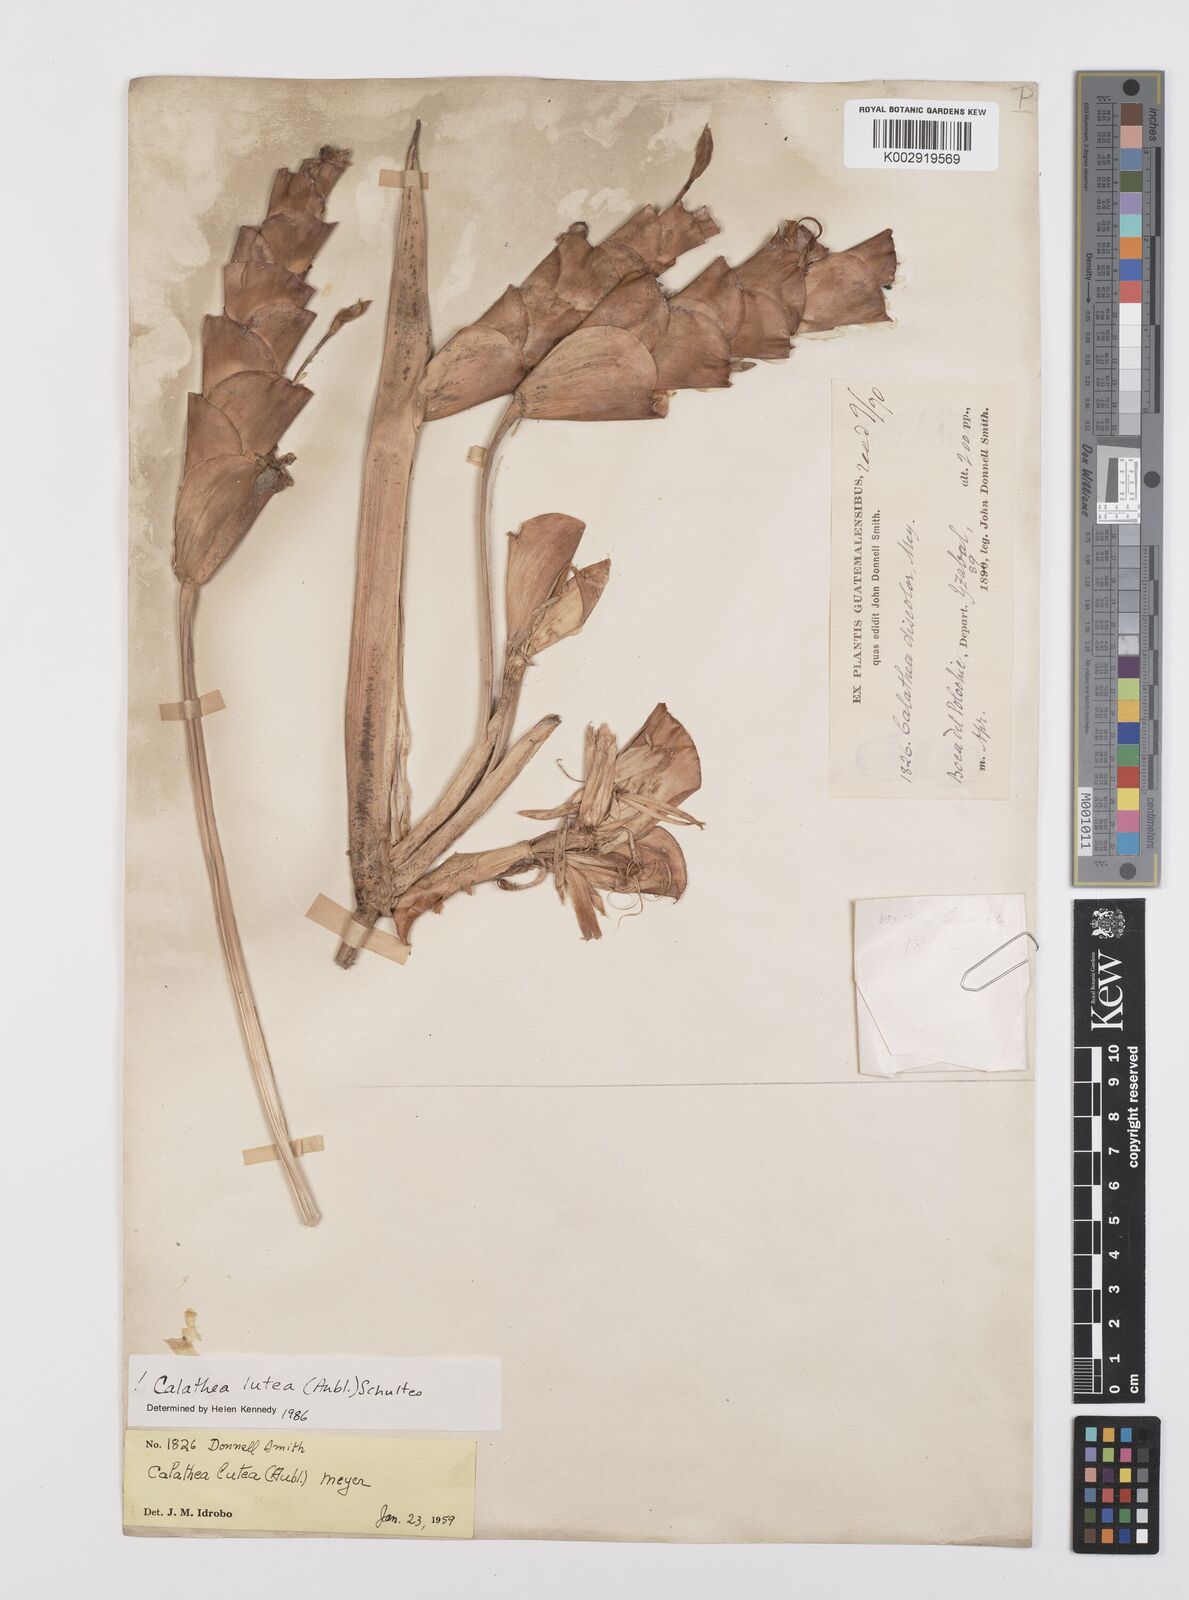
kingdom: Plantae
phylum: Tracheophyta
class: Liliopsida
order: Zingiberales
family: Marantaceae
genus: Calathea
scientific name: Calathea lutea
